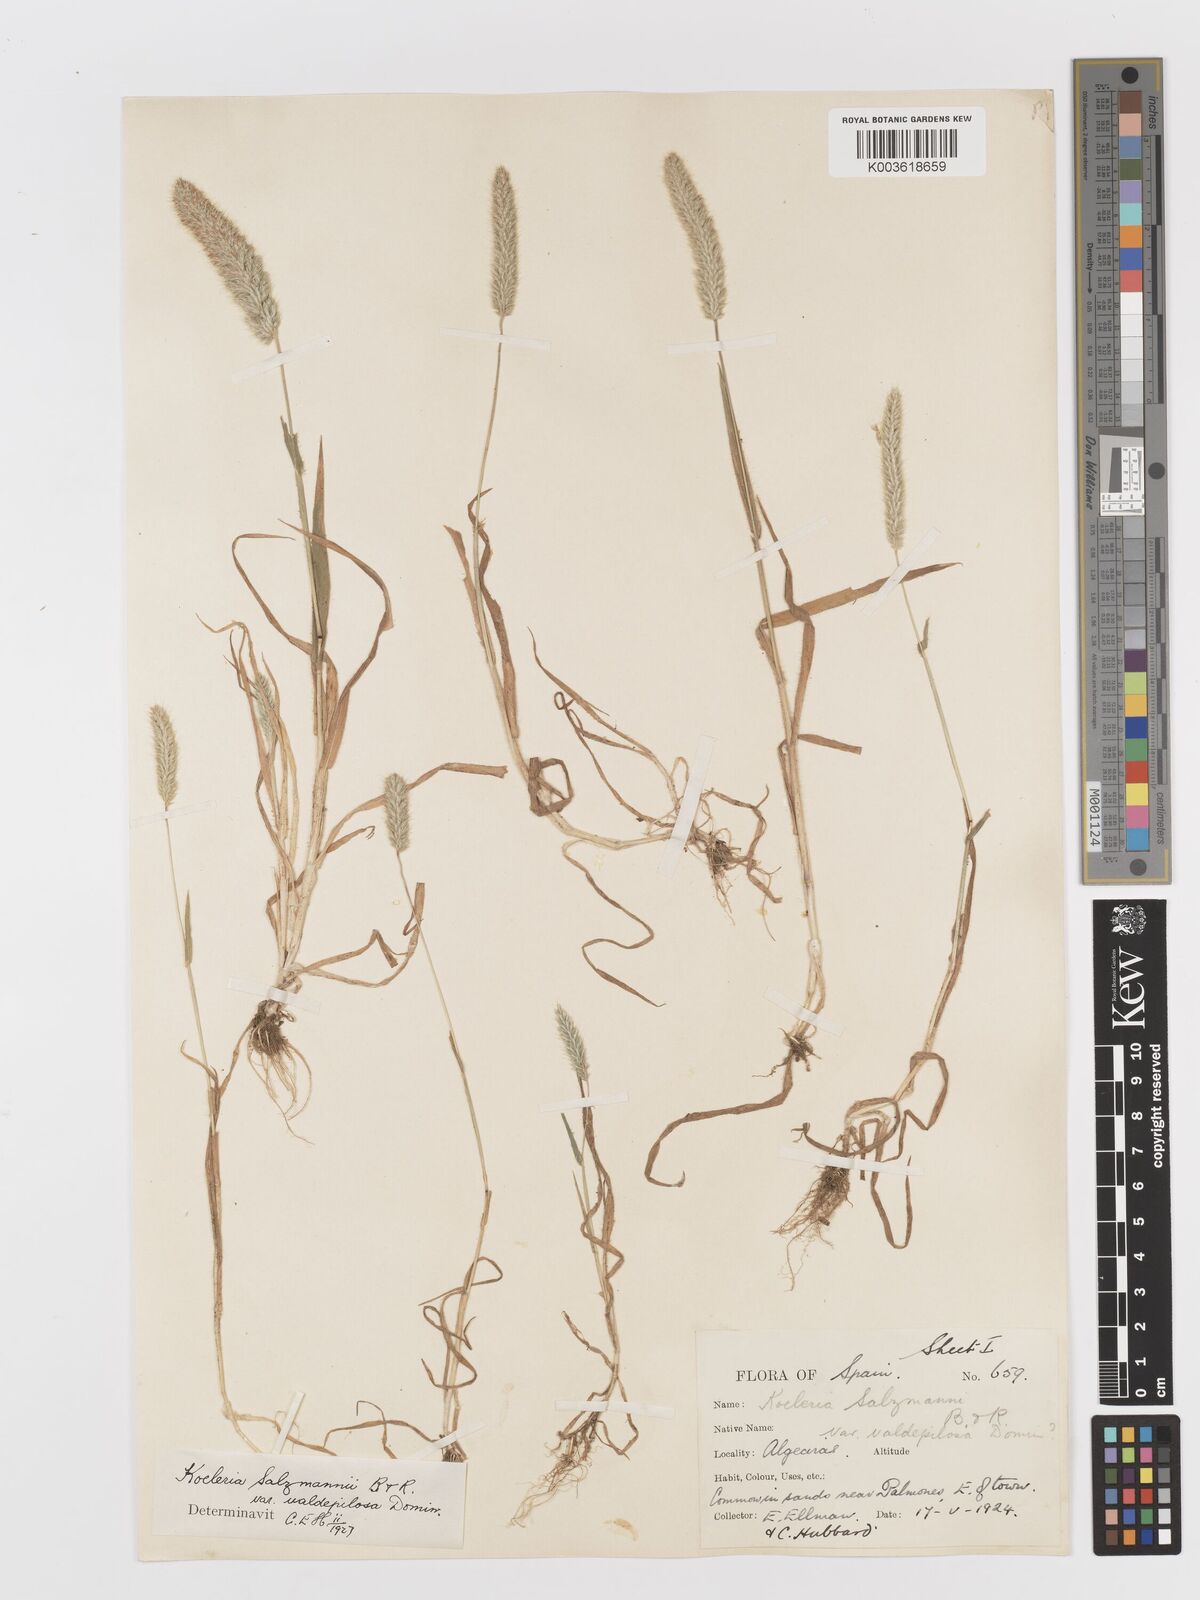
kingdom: Plantae
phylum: Tracheophyta
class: Liliopsida
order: Poales
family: Poaceae
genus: Rostraria
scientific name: Rostraria salzmannii
